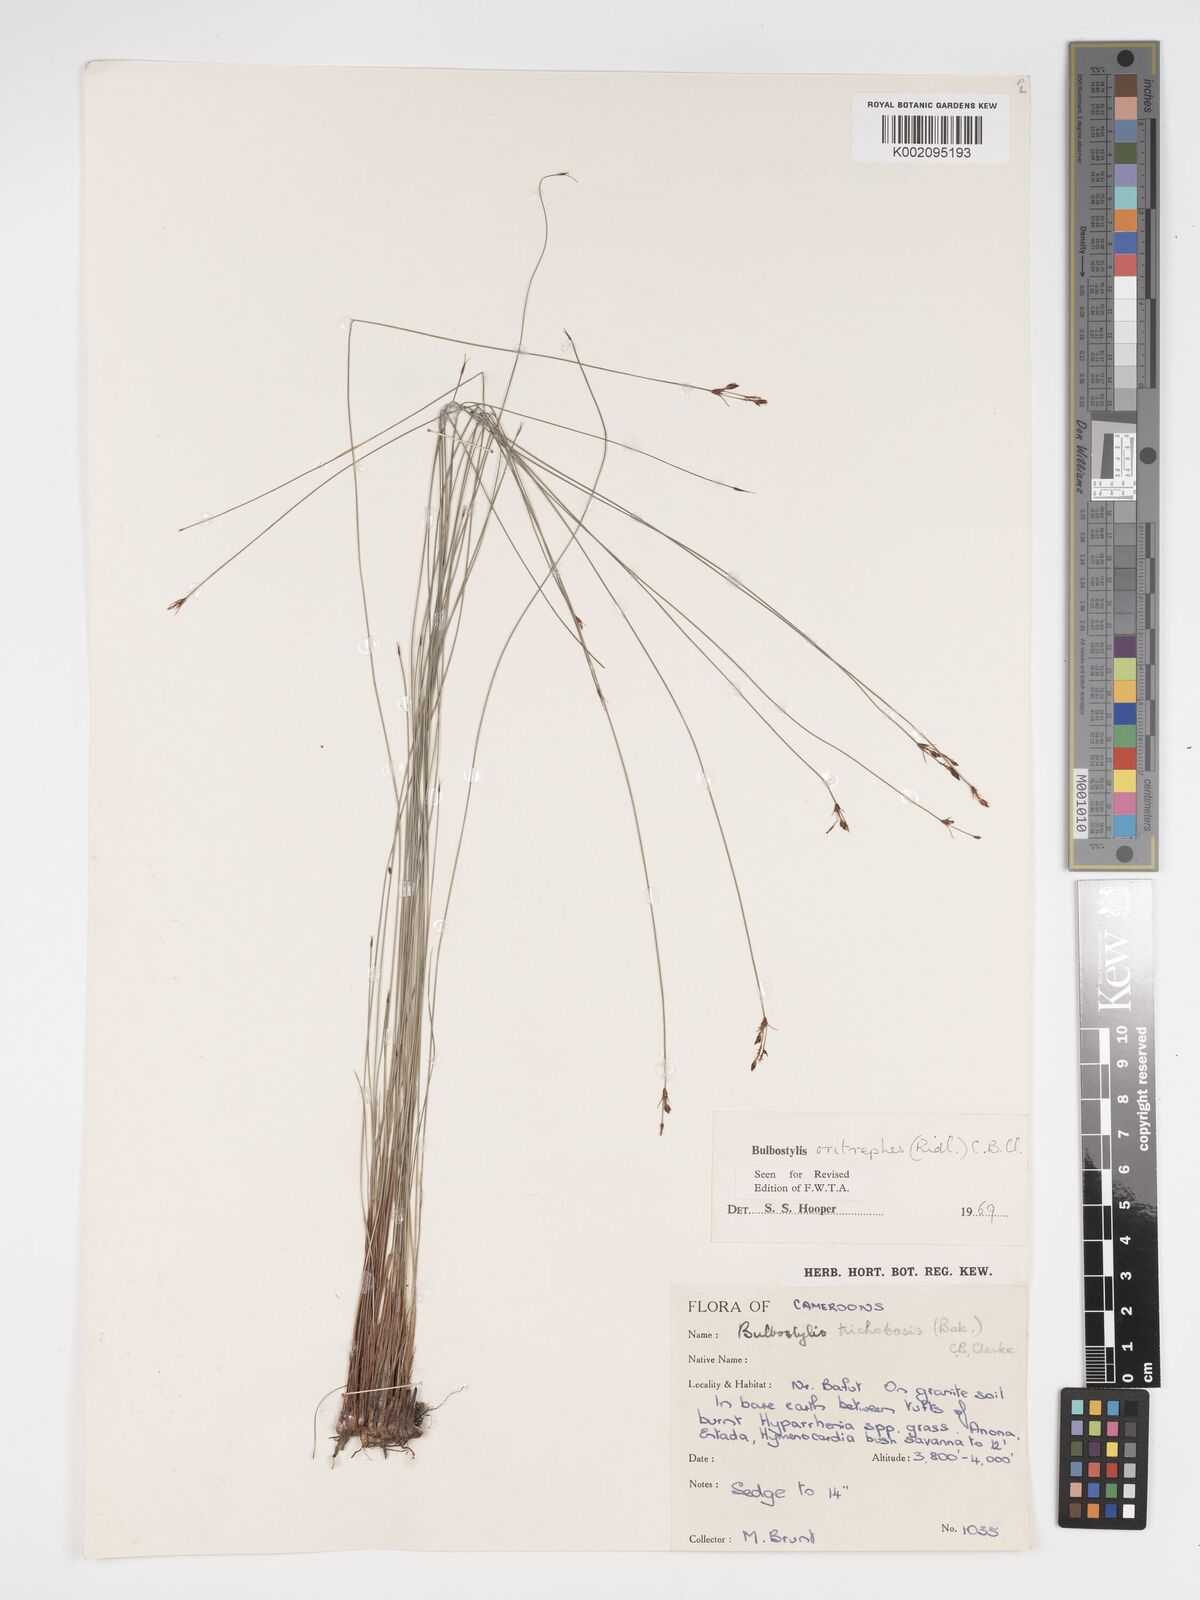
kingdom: Plantae
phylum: Tracheophyta
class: Liliopsida
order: Poales
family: Cyperaceae
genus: Bulbostylis
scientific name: Bulbostylis oritrephes
